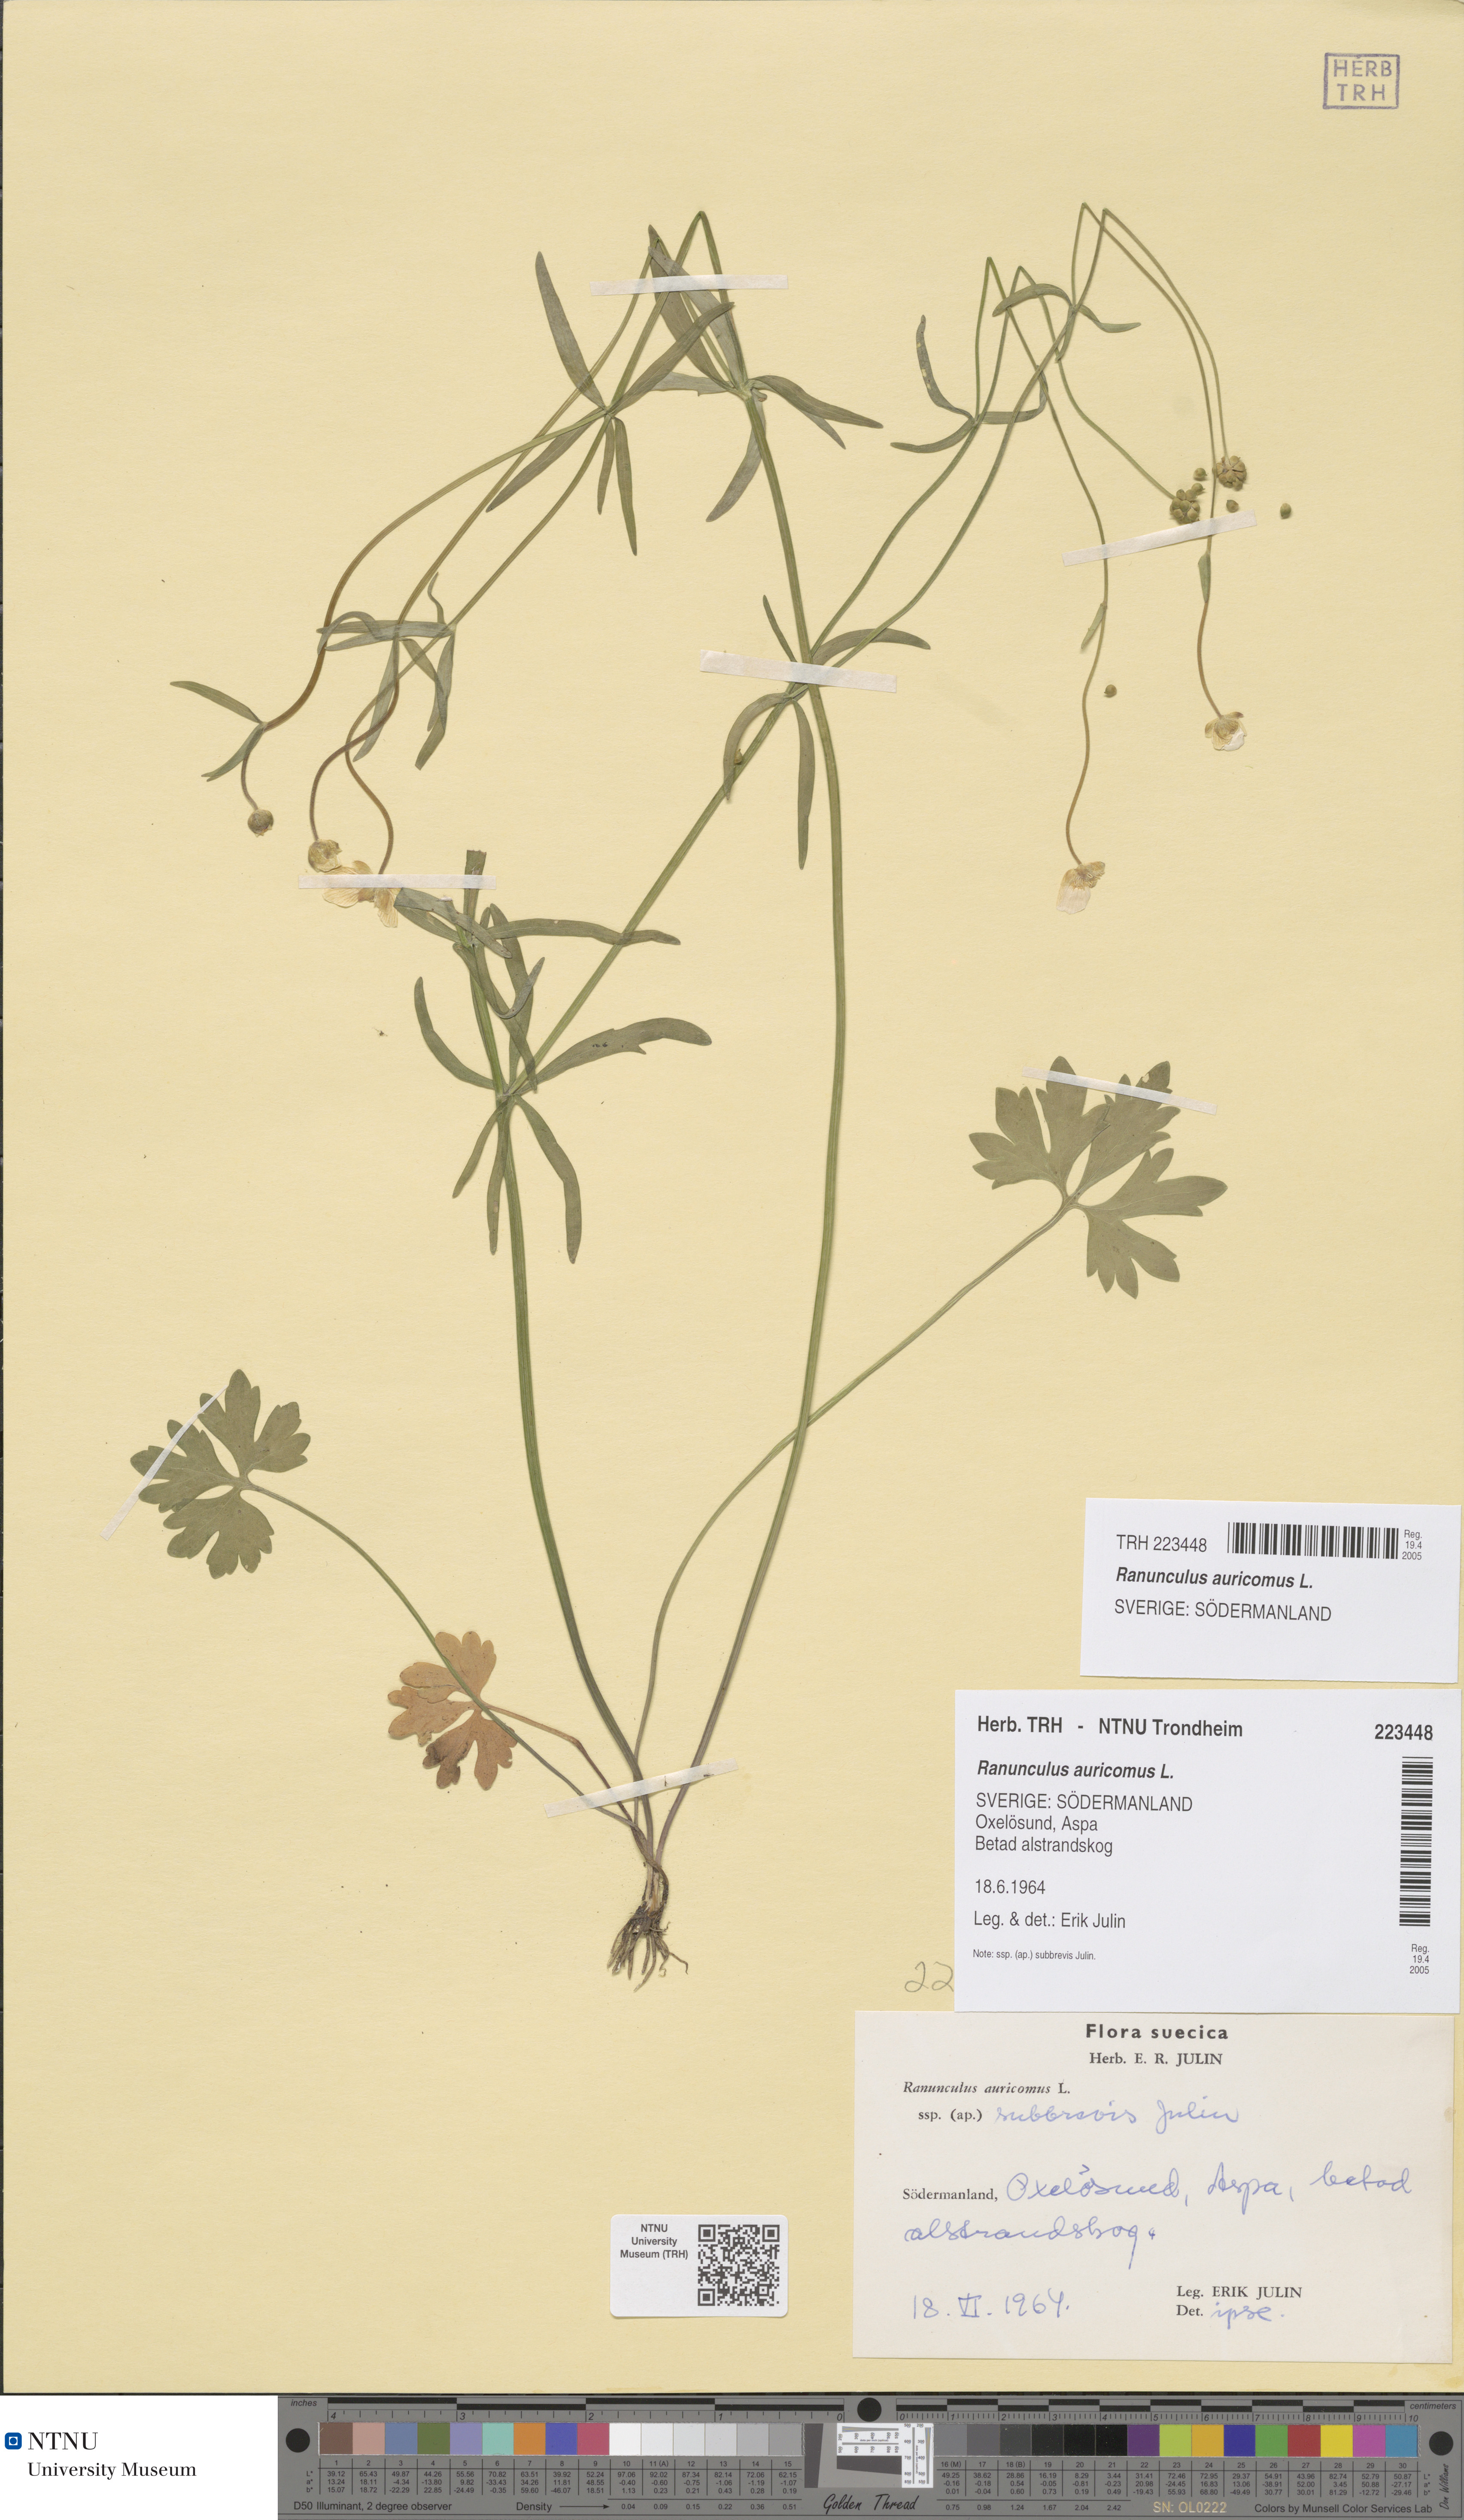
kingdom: Plantae
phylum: Tracheophyta
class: Magnoliopsida
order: Ranunculales
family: Ranunculaceae
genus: Ranunculus
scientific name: Ranunculus auricomus
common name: Goldilocks buttercup
